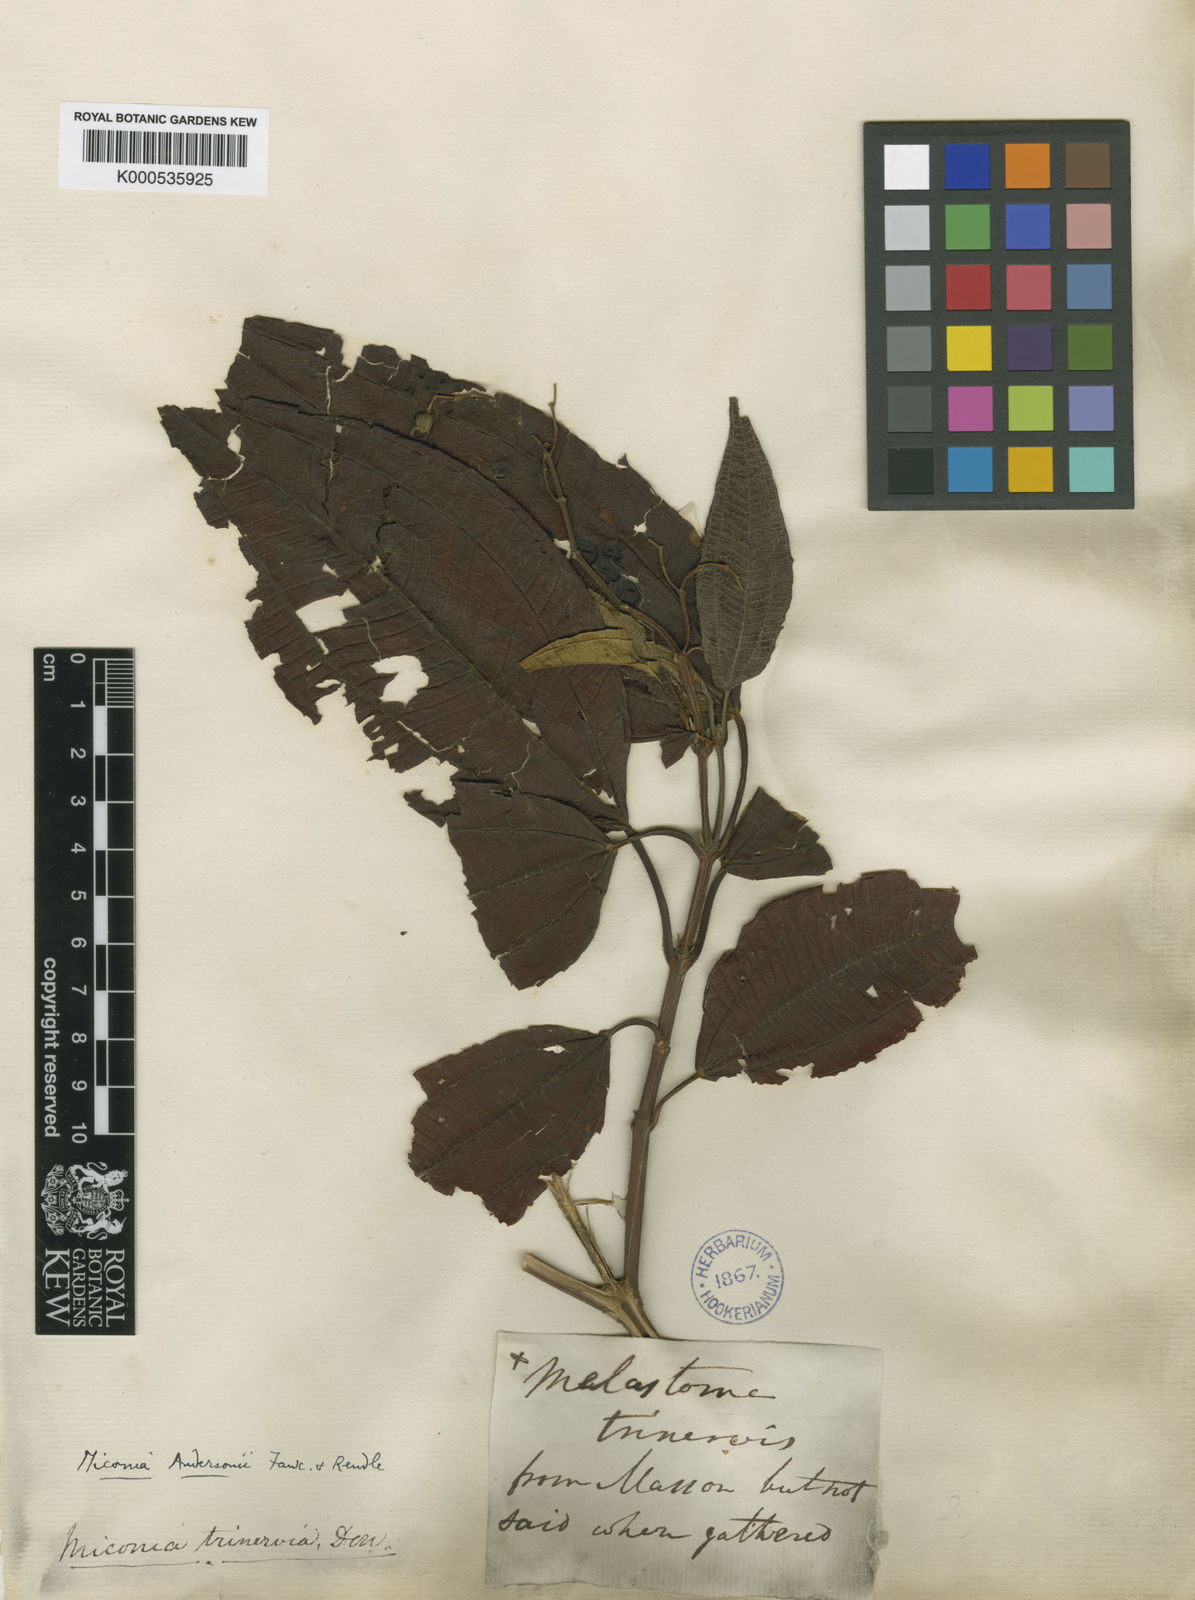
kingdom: Plantae
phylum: Tracheophyta
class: Magnoliopsida
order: Myrtales
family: Melastomataceae
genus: Miconia
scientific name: Miconia andersonii
